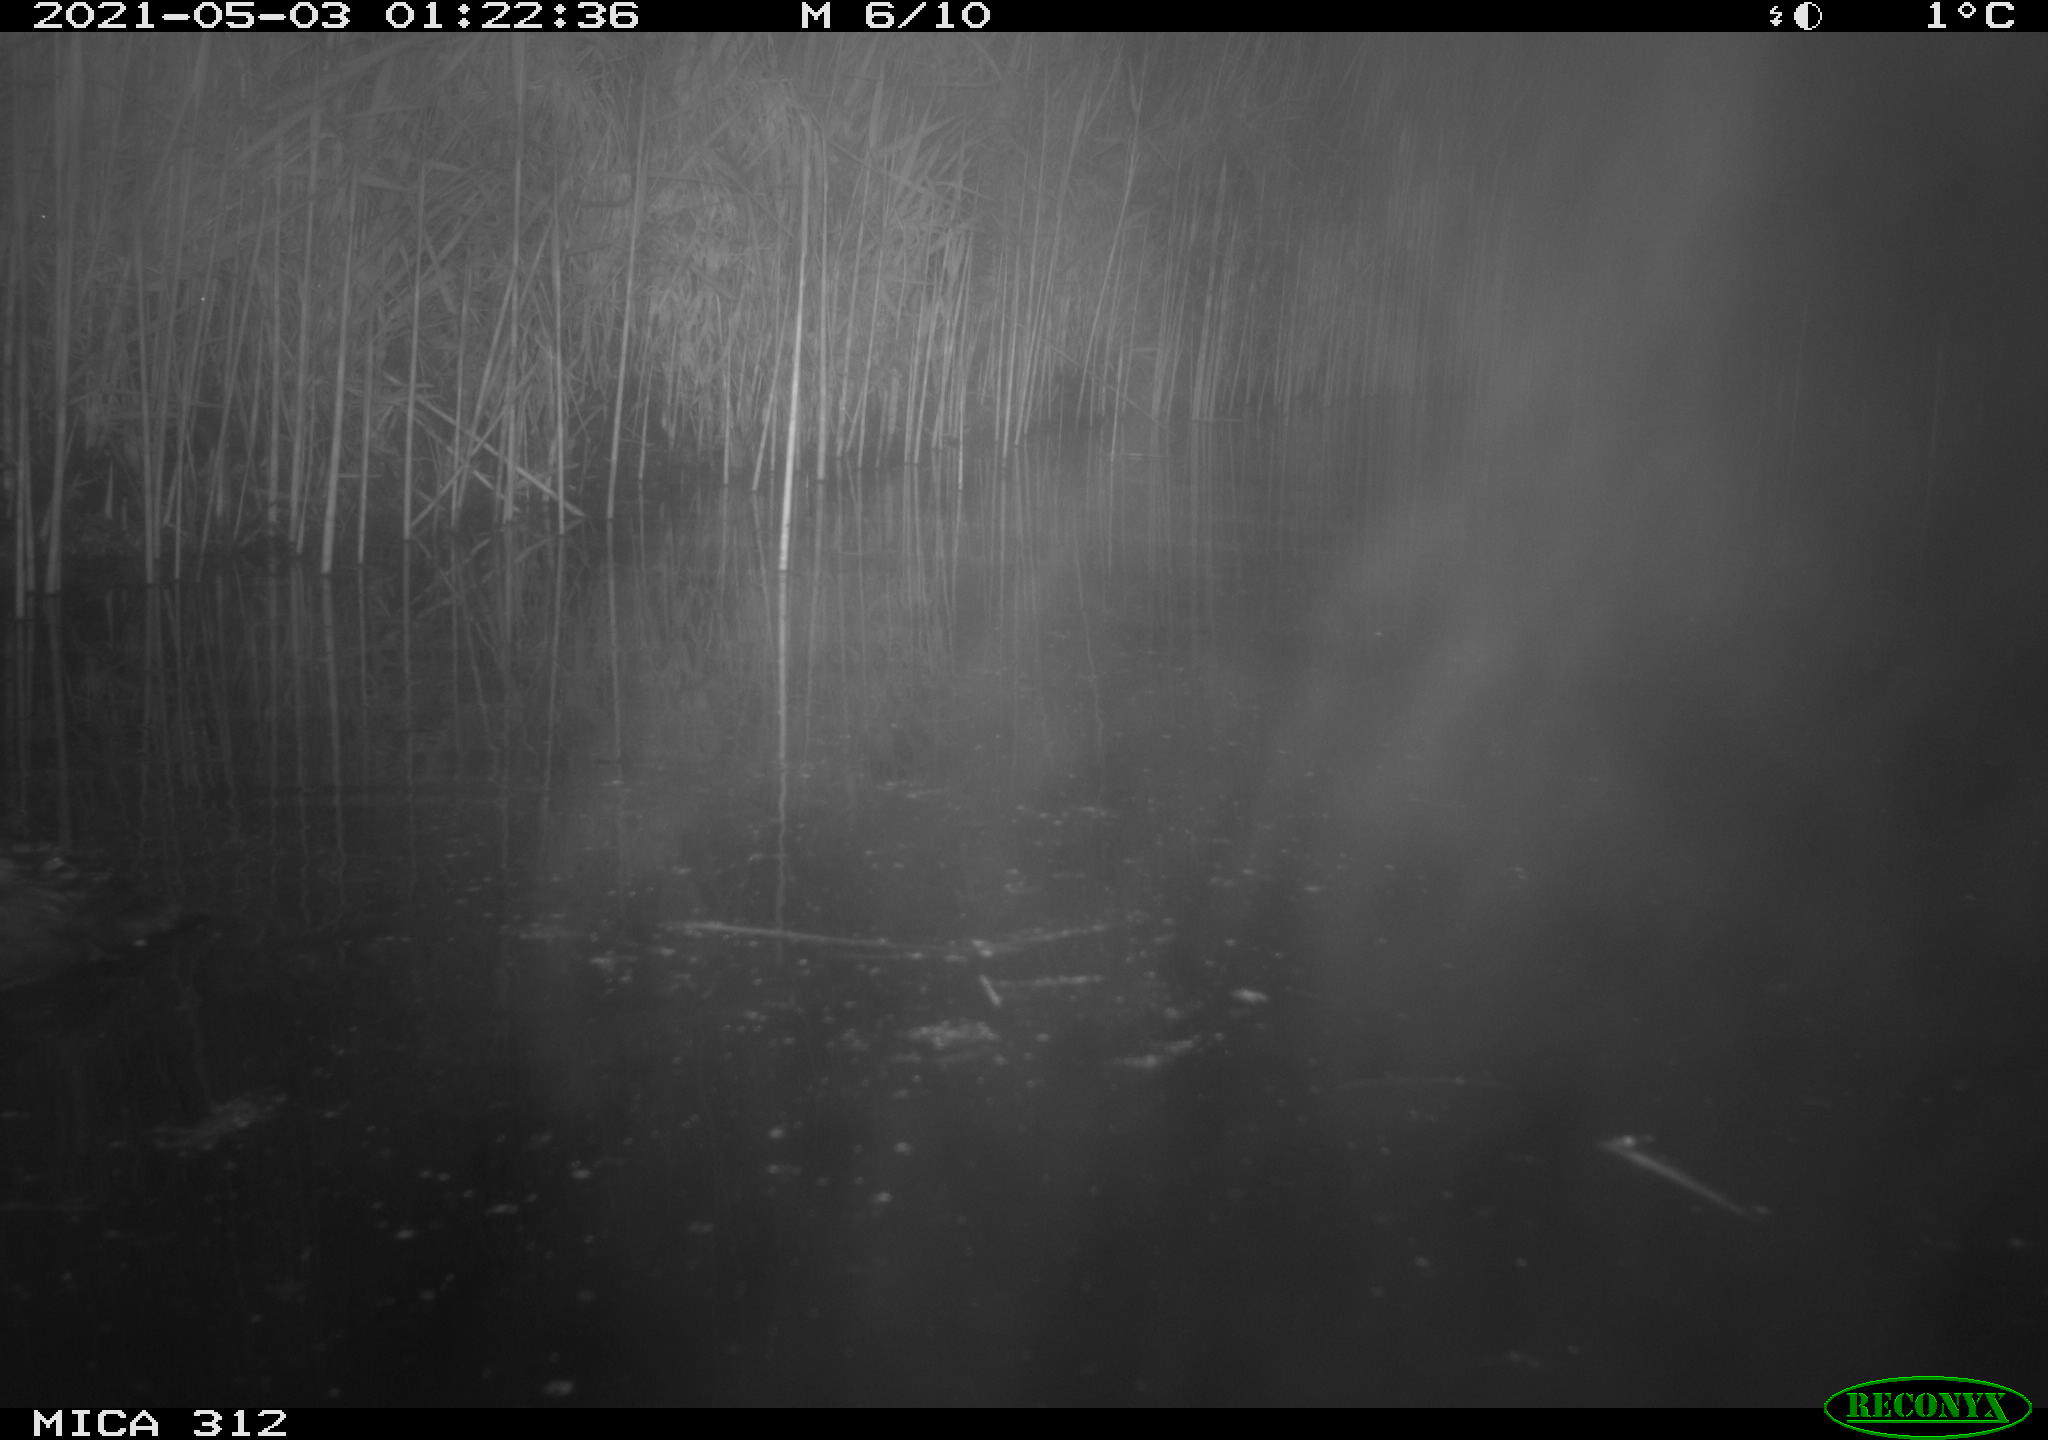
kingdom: Animalia
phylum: Chordata
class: Aves
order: Gruiformes
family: Rallidae
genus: Fulica
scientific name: Fulica atra
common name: Eurasian coot
